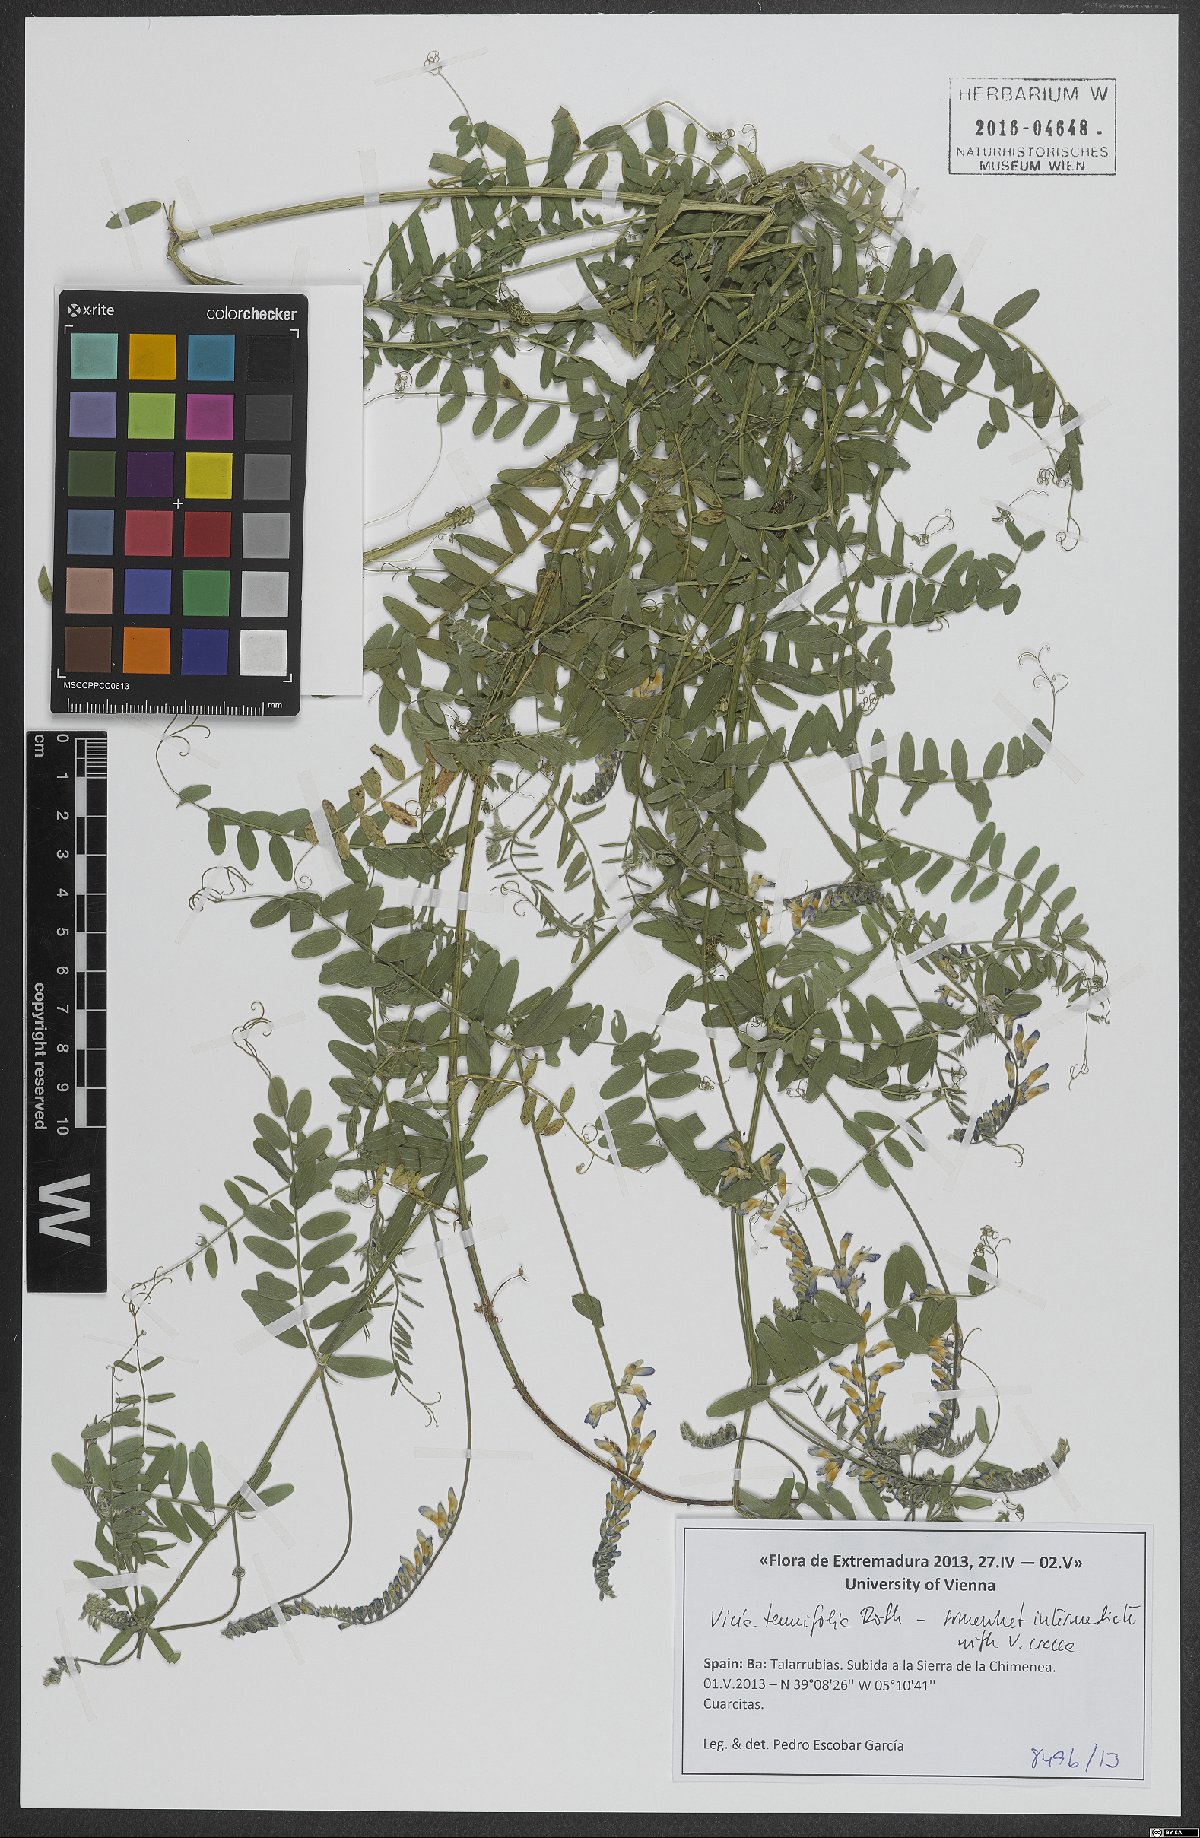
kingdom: Plantae
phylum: Tracheophyta
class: Magnoliopsida
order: Fabales
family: Fabaceae
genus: Vicia
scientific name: Vicia tenuifolia
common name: Fine-leaved vetch
